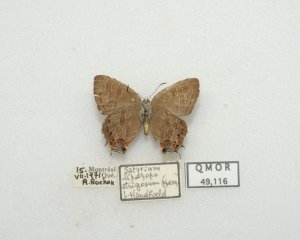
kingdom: Animalia
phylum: Arthropoda
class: Insecta
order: Lepidoptera
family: Lycaenidae
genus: Satyrium
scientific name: Satyrium liparops
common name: Striped Hairstreak
